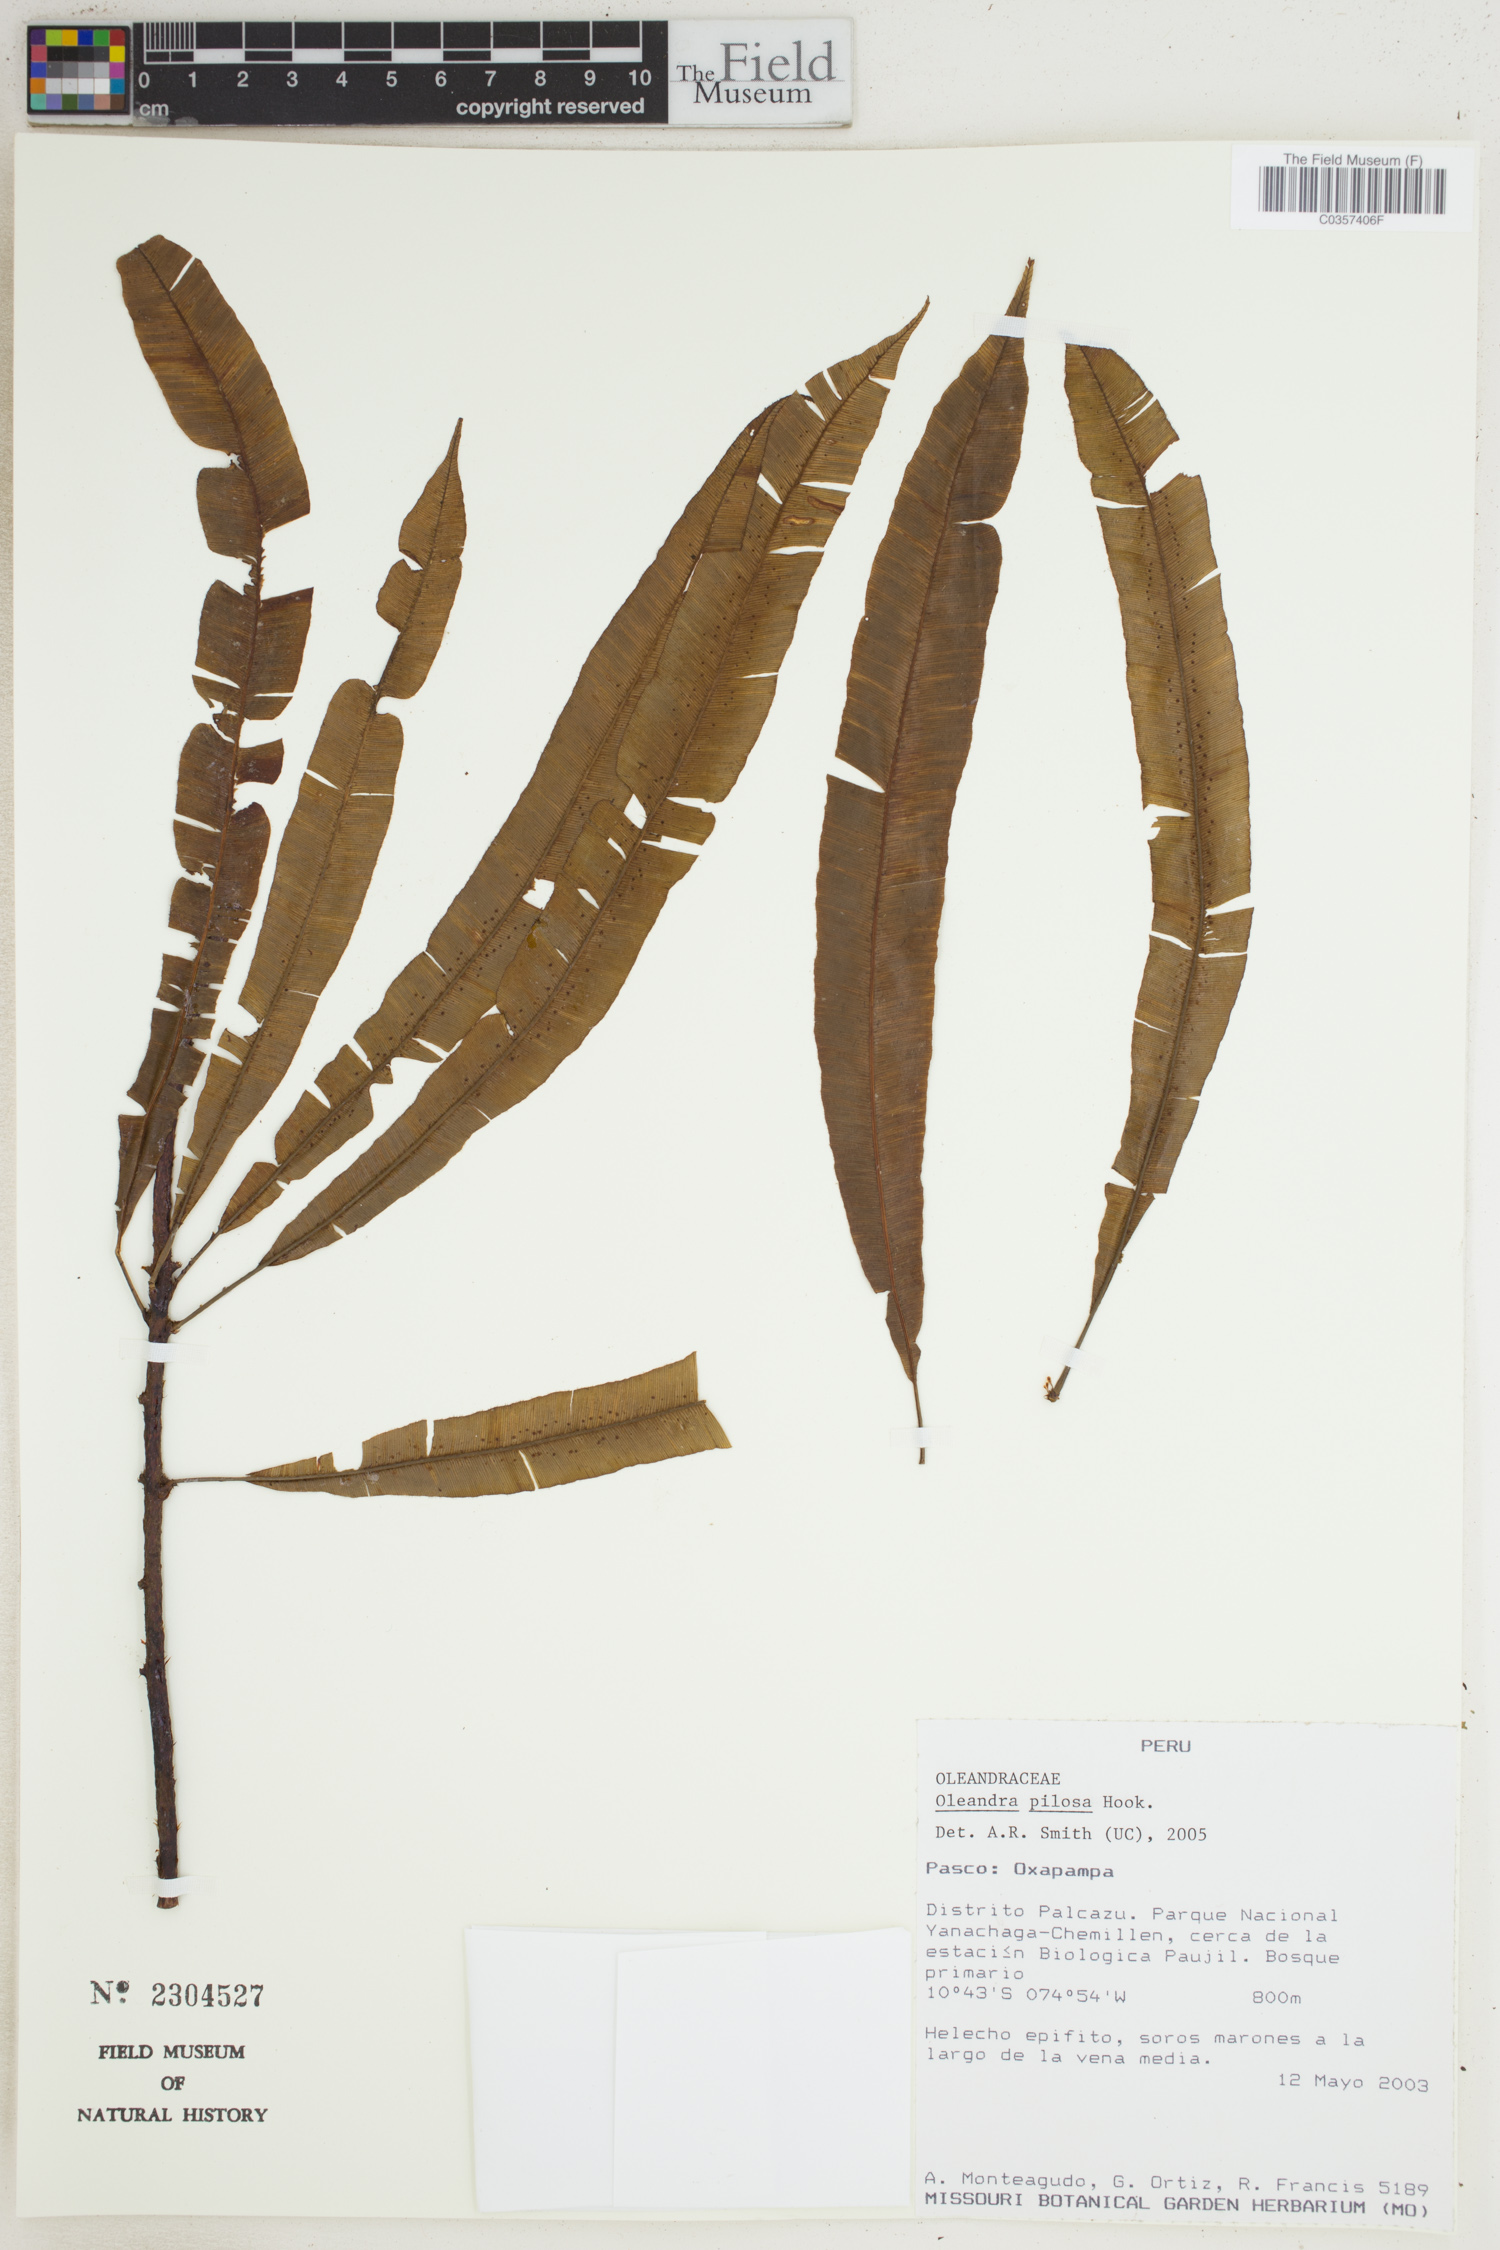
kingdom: Plantae
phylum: Tracheophyta
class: Polypodiopsida
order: Polypodiales
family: Oleandraceae
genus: Oleandra
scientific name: Oleandra pilosa
